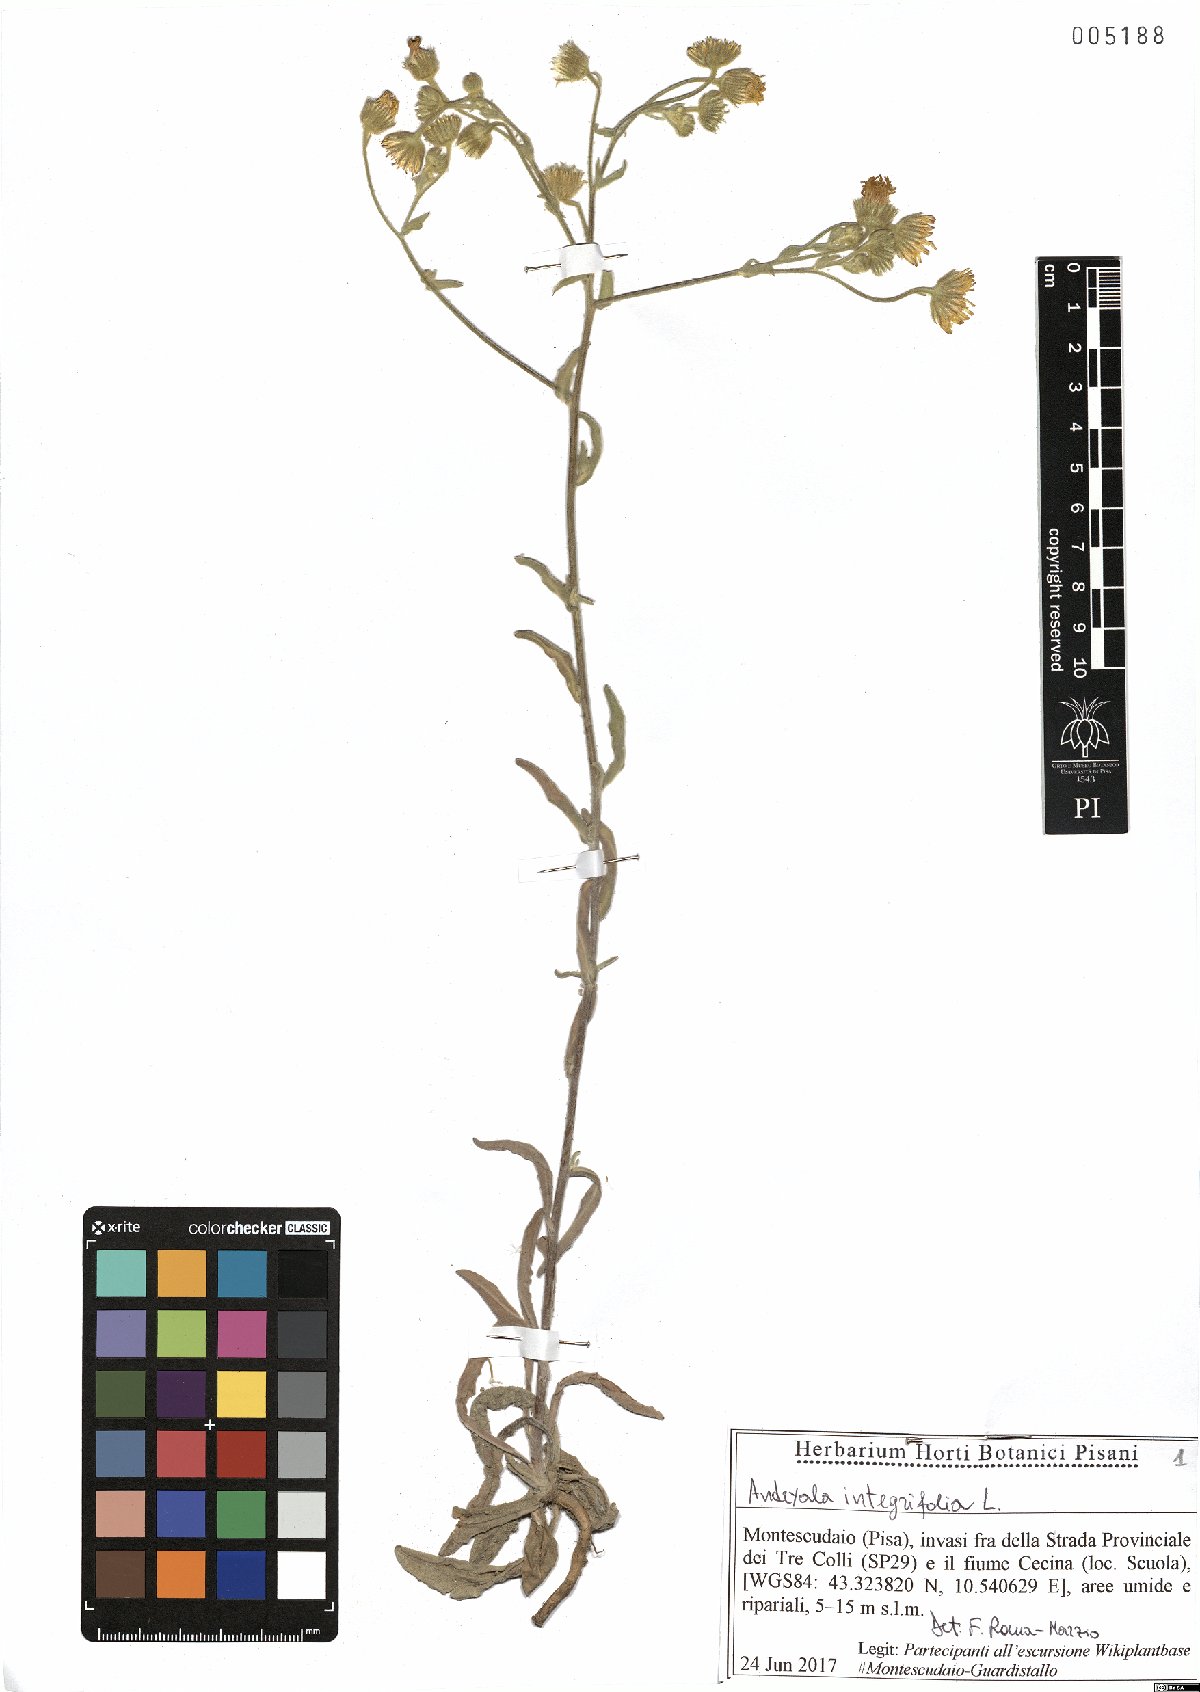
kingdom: Plantae
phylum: Tracheophyta
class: Magnoliopsida
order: Asterales
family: Asteraceae
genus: Andryala
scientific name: Andryala integrifolia
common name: Common andryala
